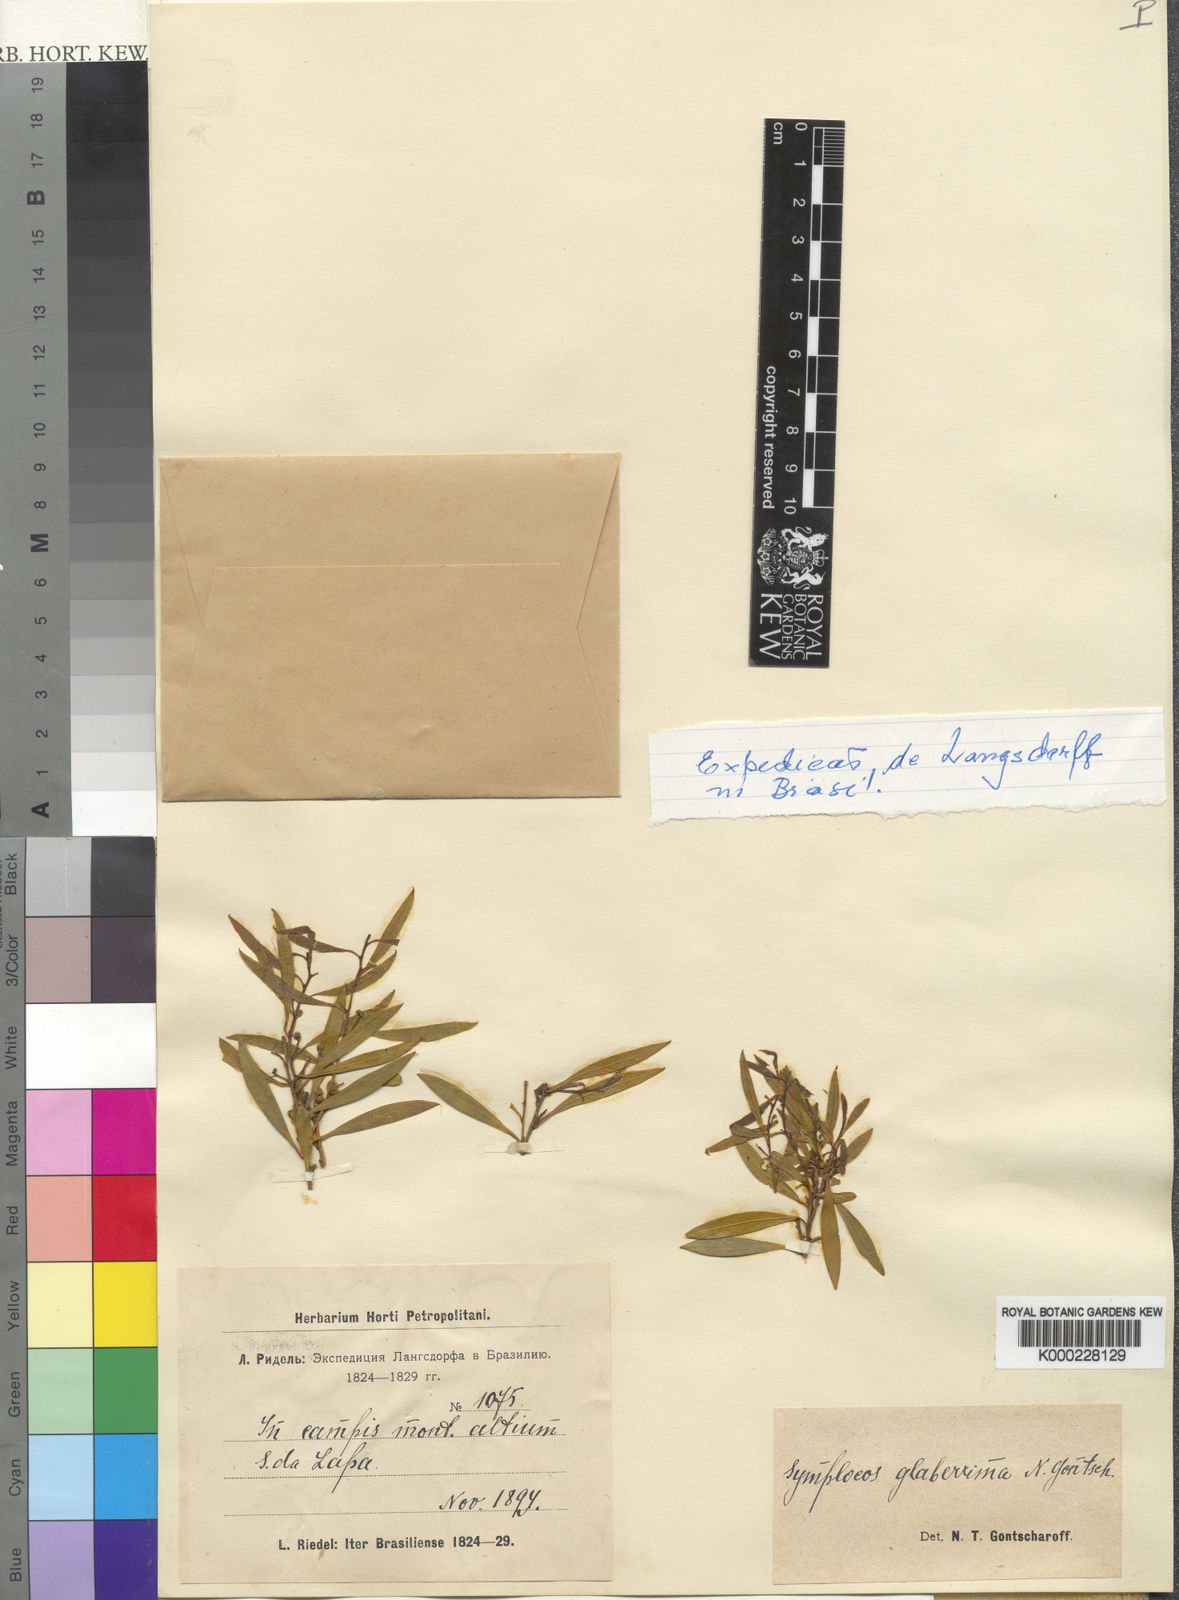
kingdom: Plantae
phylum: Tracheophyta
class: Magnoliopsida
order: Ericales
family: Symplocaceae
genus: Symplocos
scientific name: Symplocos glaberrima
